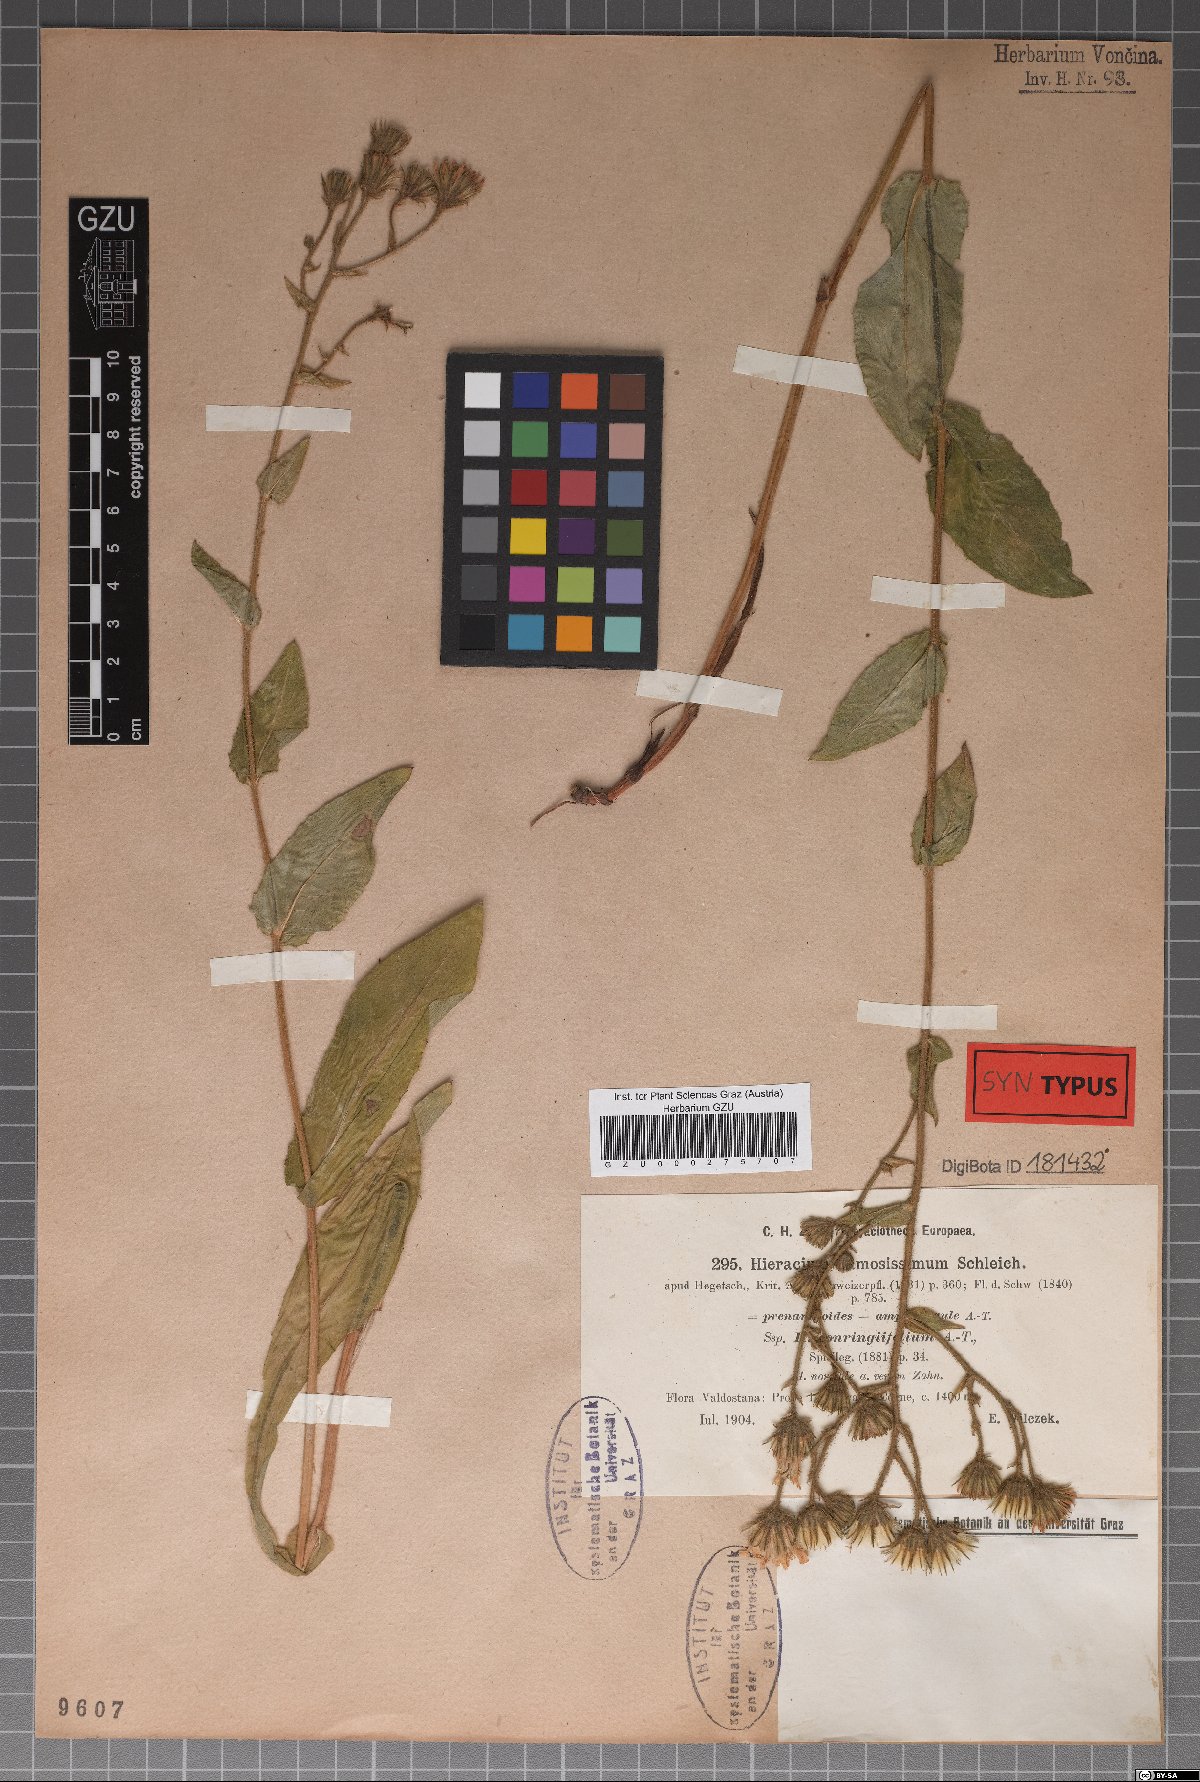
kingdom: Plantae
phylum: Tracheophyta
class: Magnoliopsida
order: Asterales
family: Asteraceae
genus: Hieracium
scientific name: Hieracium ramosissimum
